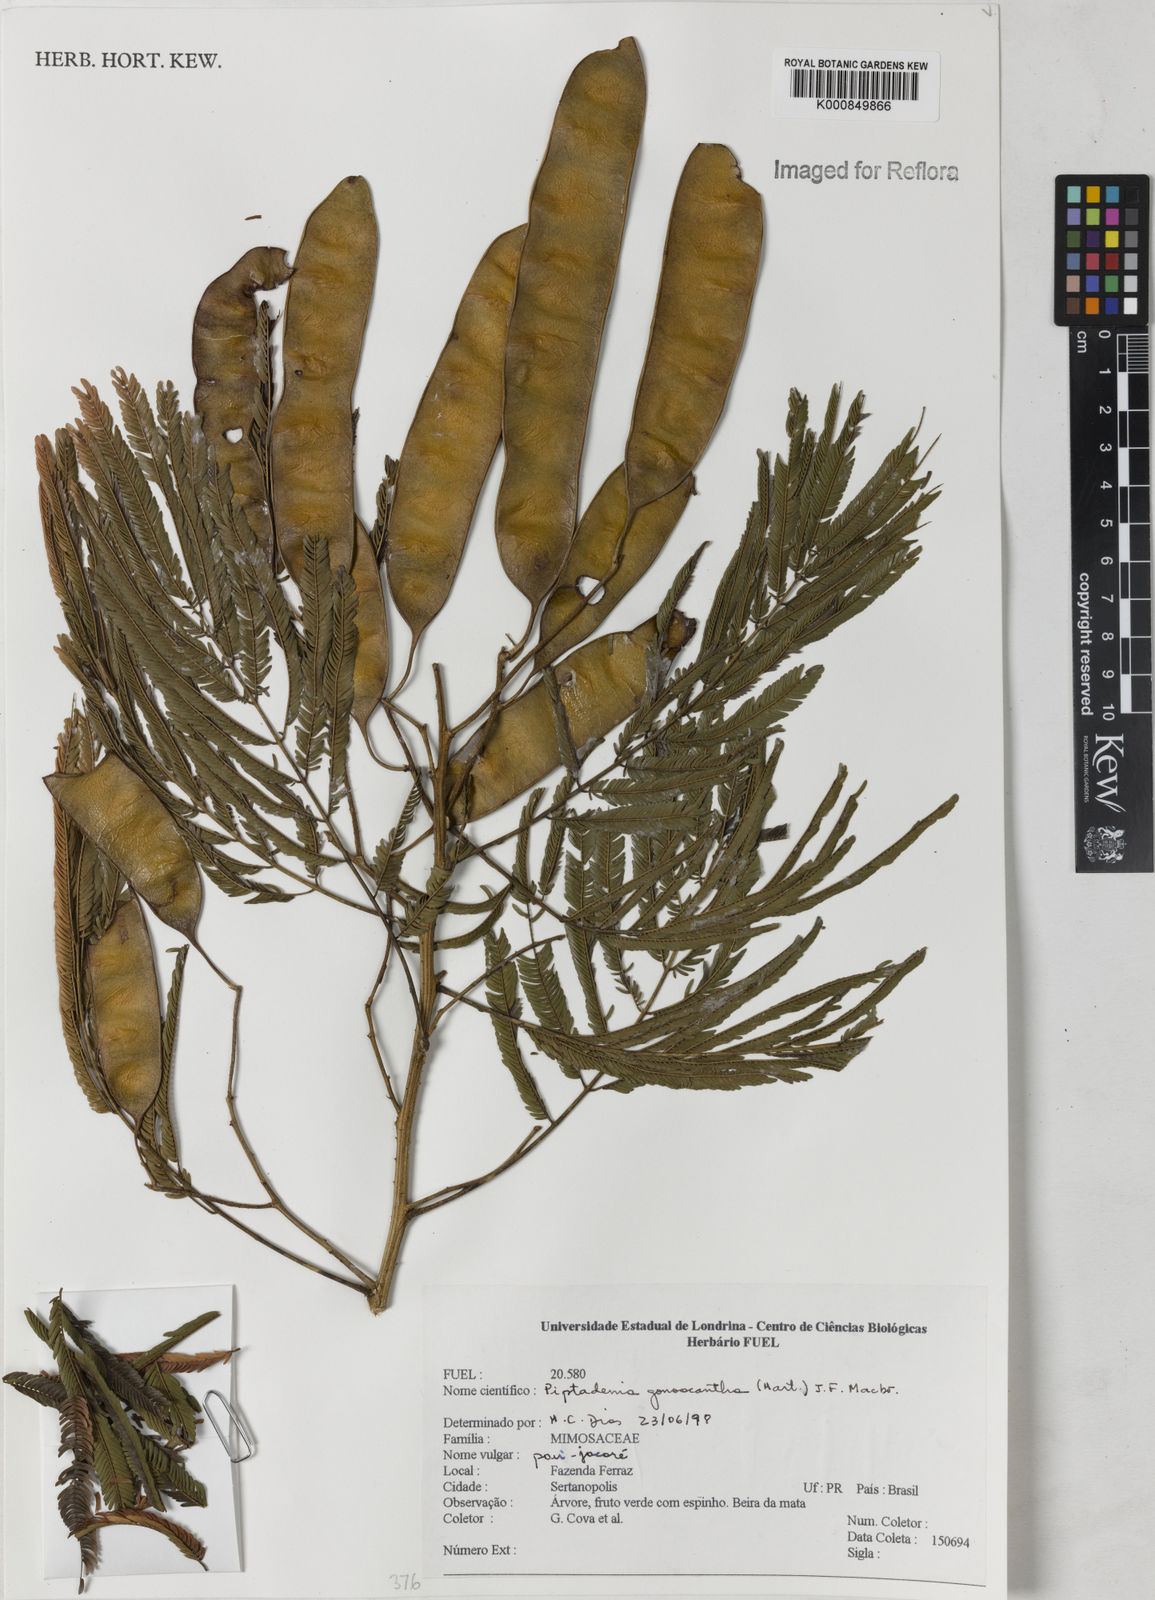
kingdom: Plantae
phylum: Tracheophyta
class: Magnoliopsida
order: Fabales
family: Fabaceae
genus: Piptadenia
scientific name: Piptadenia gonoacantha
